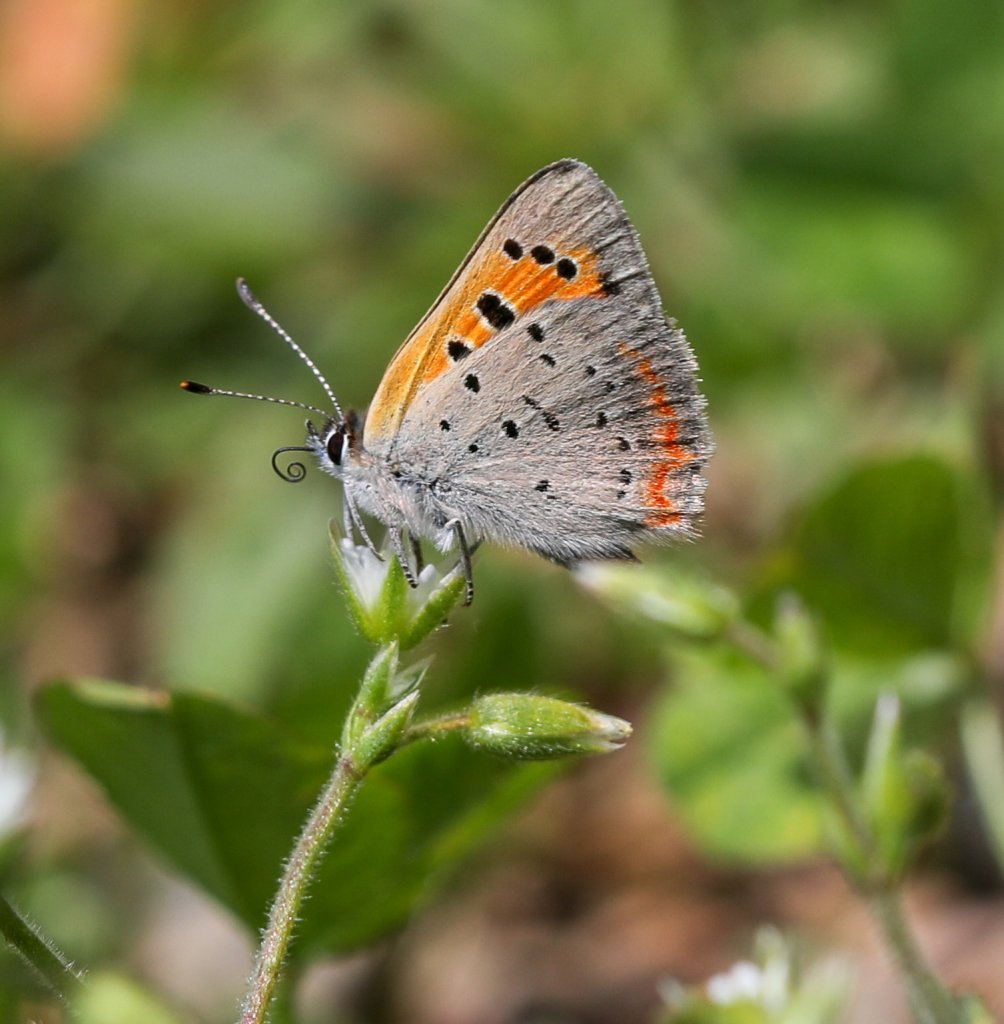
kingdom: Animalia
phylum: Arthropoda
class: Insecta
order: Lepidoptera
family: Lycaenidae
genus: Lycaena
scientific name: Lycaena phlaeas
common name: American Copper
